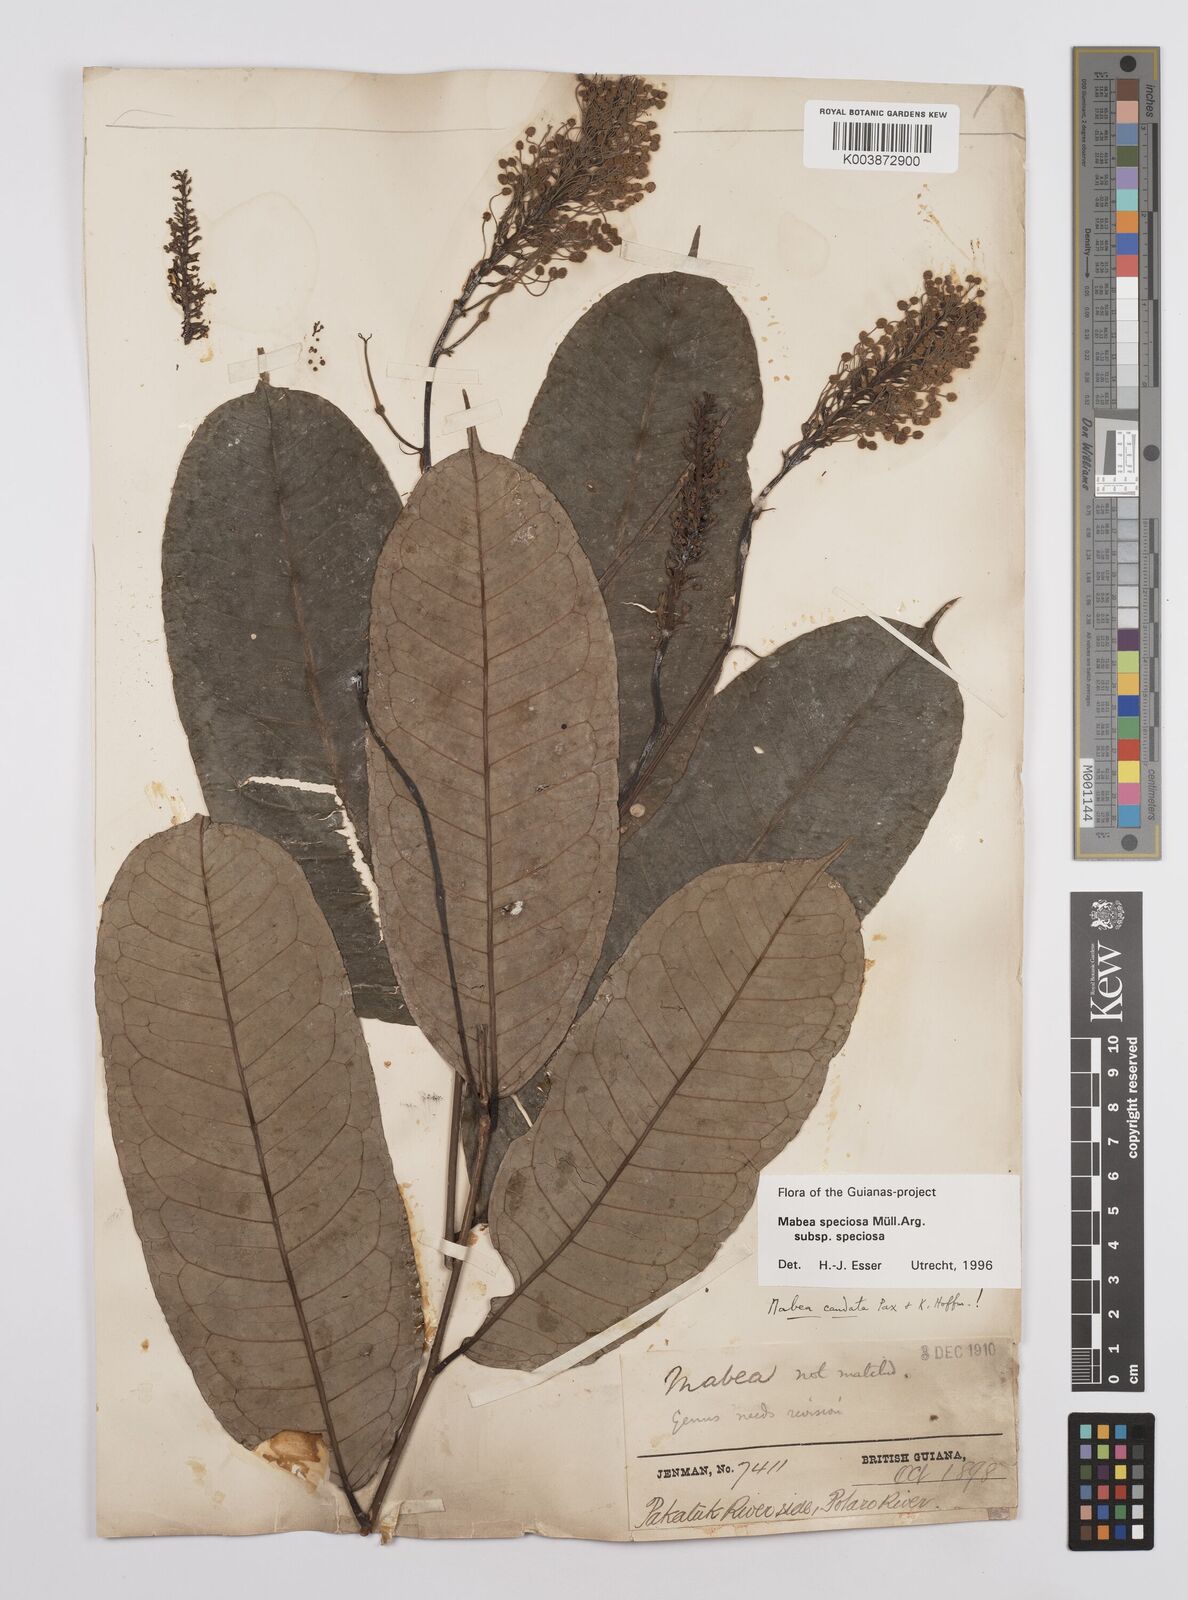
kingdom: Plantae
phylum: Tracheophyta
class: Magnoliopsida
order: Malpighiales
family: Euphorbiaceae
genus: Mabea
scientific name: Mabea speciosa
